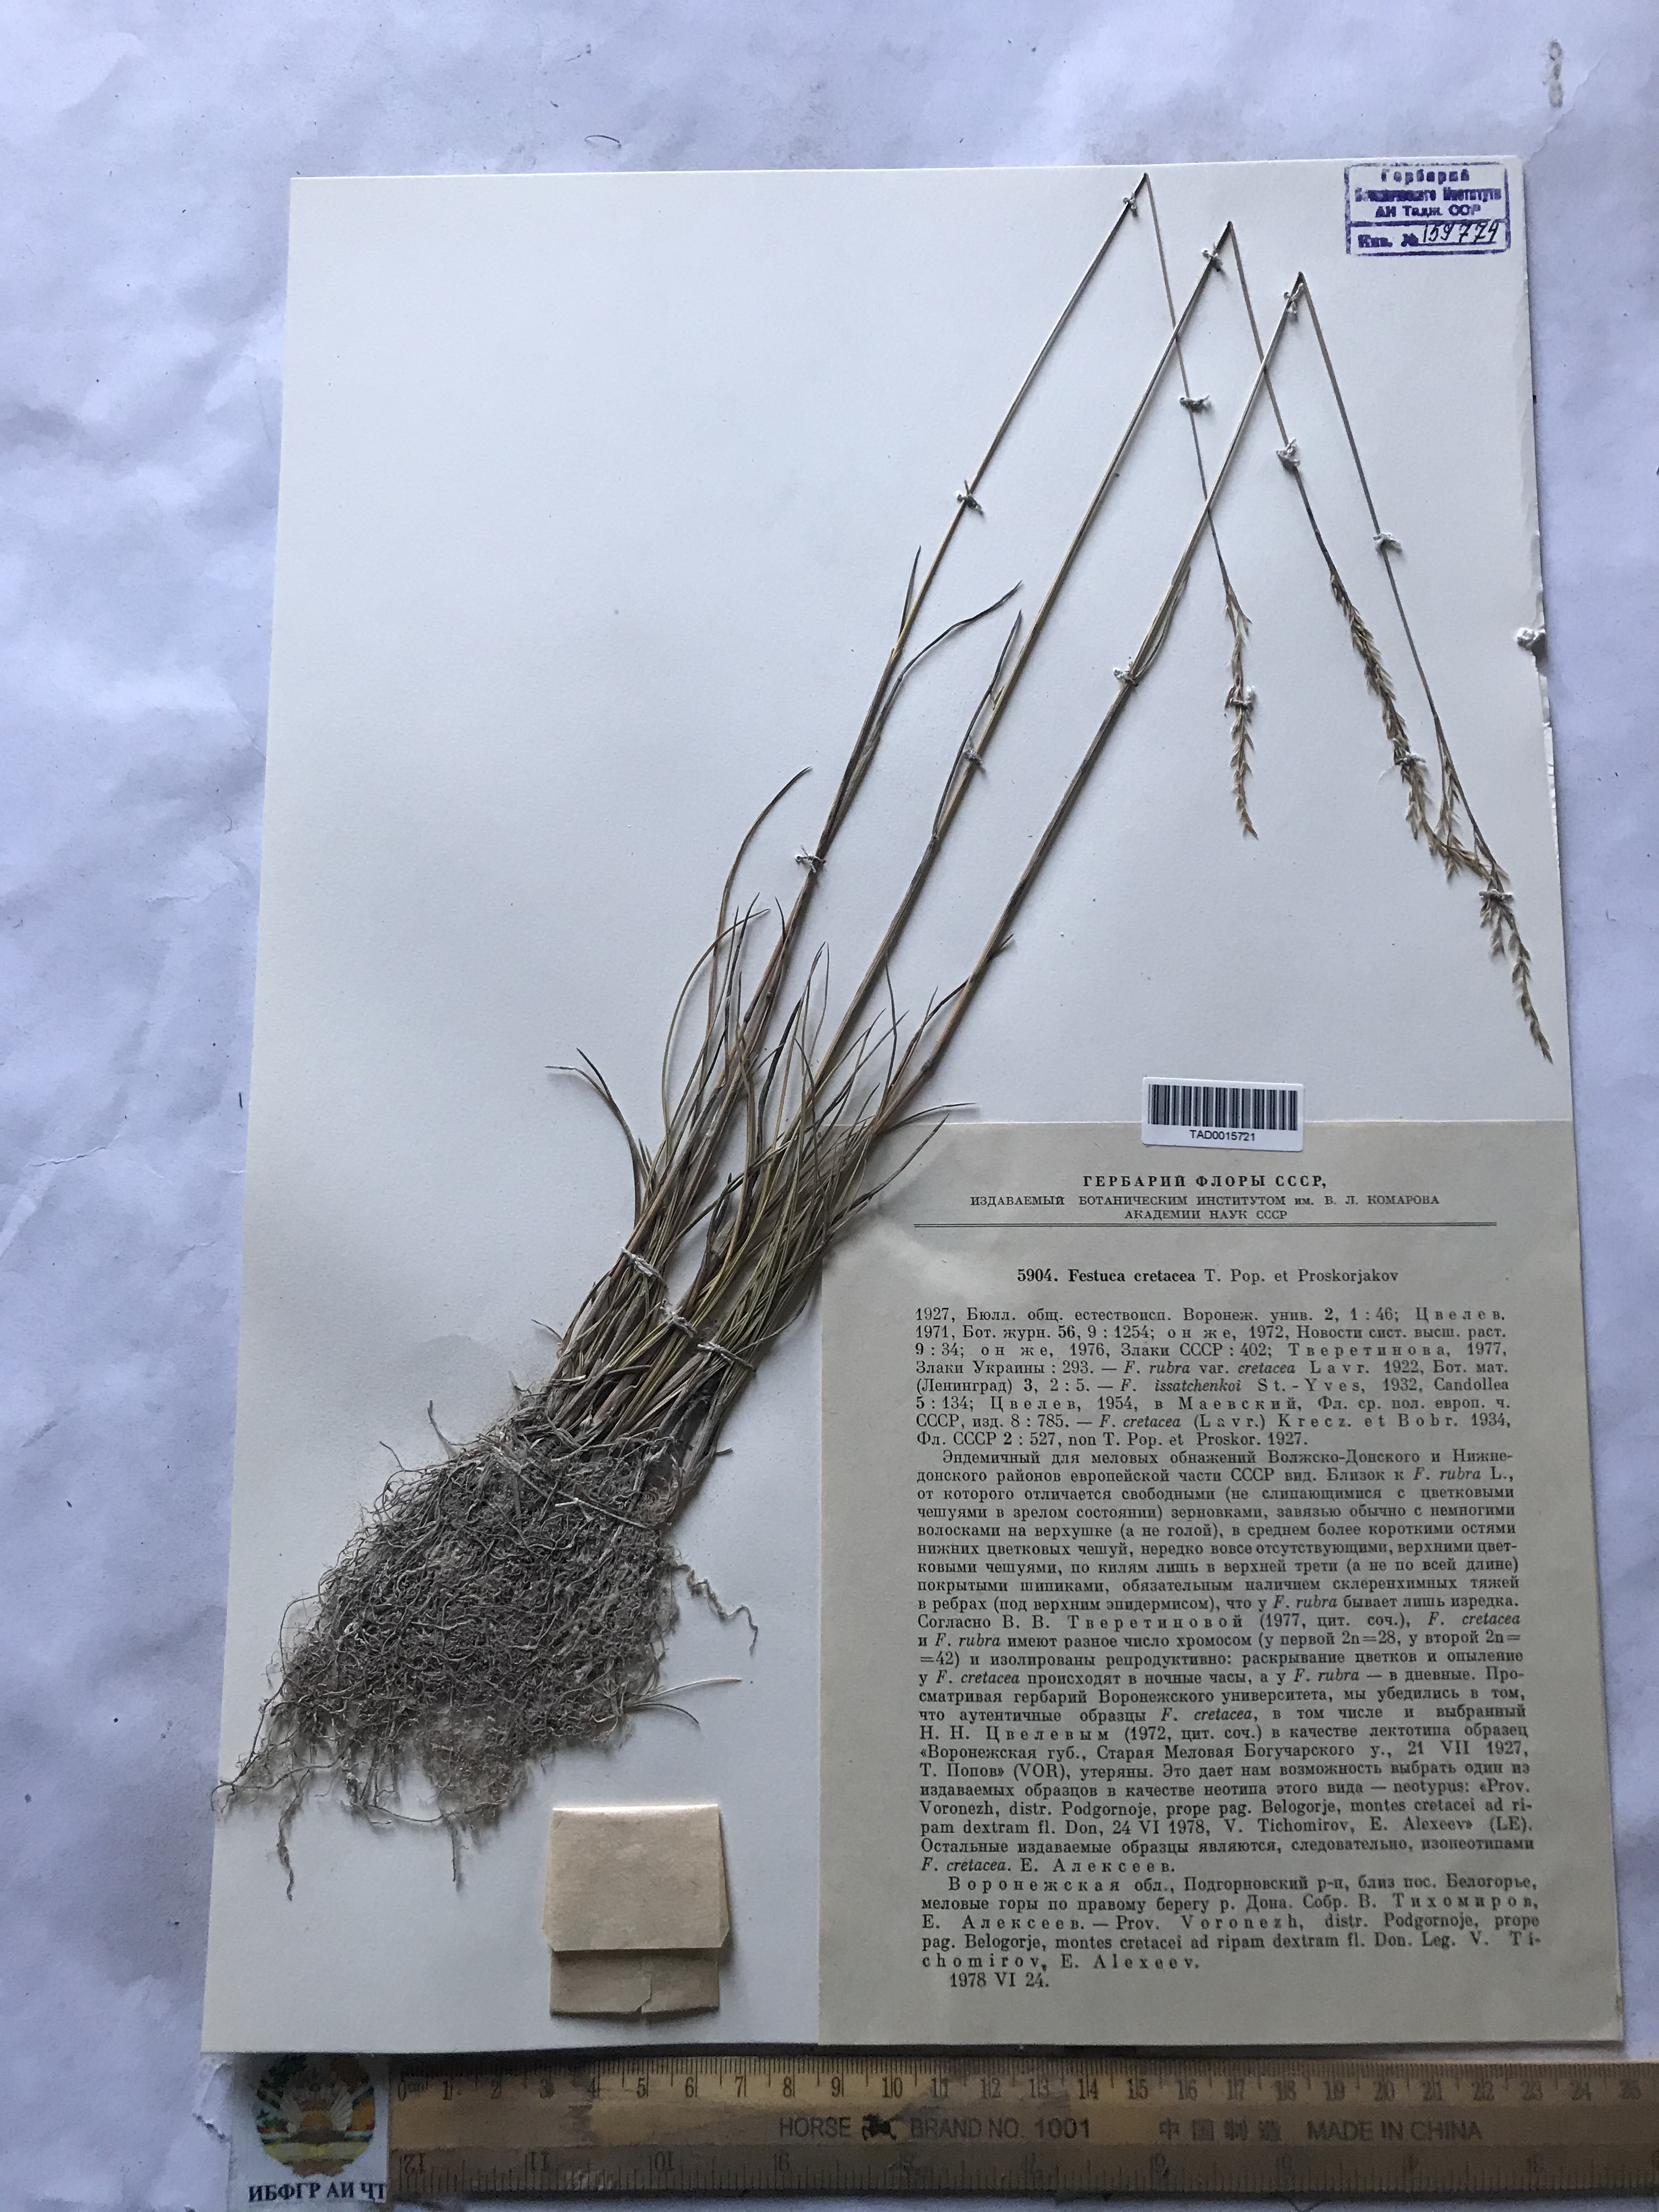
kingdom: Plantae
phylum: Tracheophyta
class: Liliopsida
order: Poales
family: Poaceae
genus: Festuca
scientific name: Festuca cretacea
